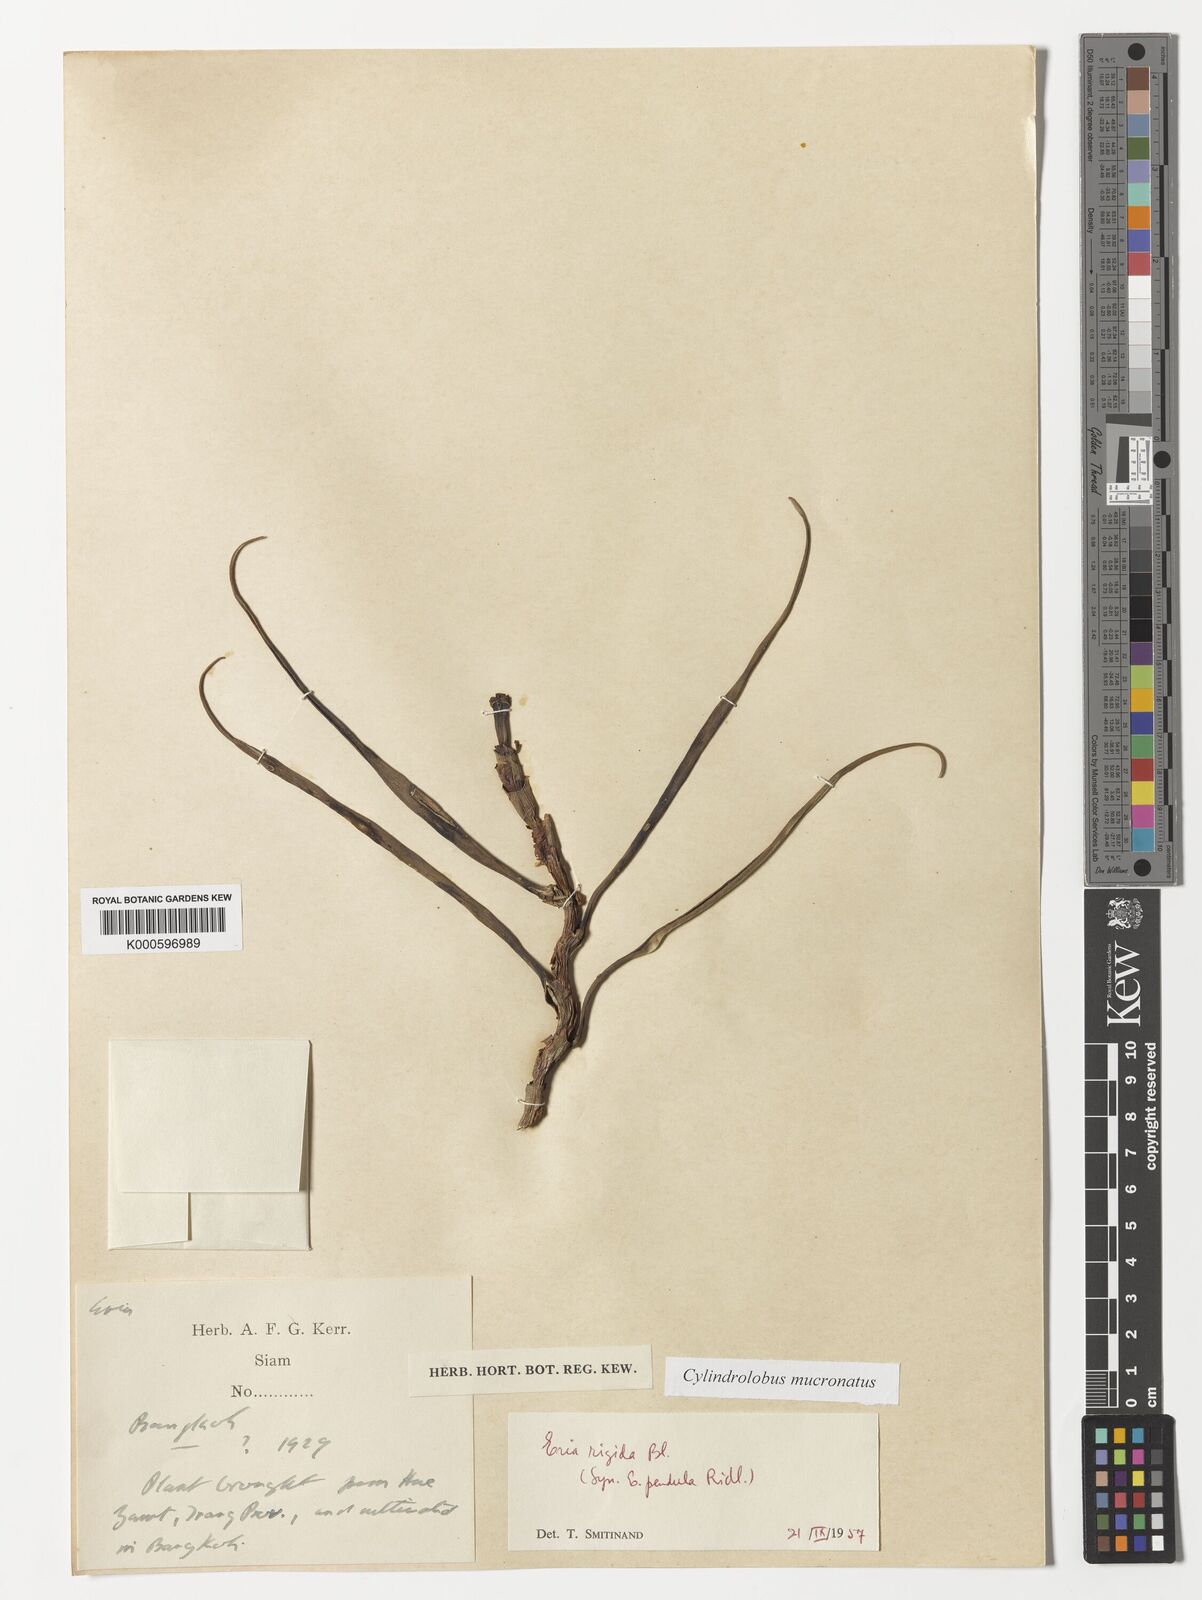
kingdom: Plantae
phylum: Tracheophyta
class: Liliopsida
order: Asparagales
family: Orchidaceae
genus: Cylindrolobus
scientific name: Cylindrolobus mucronatus
